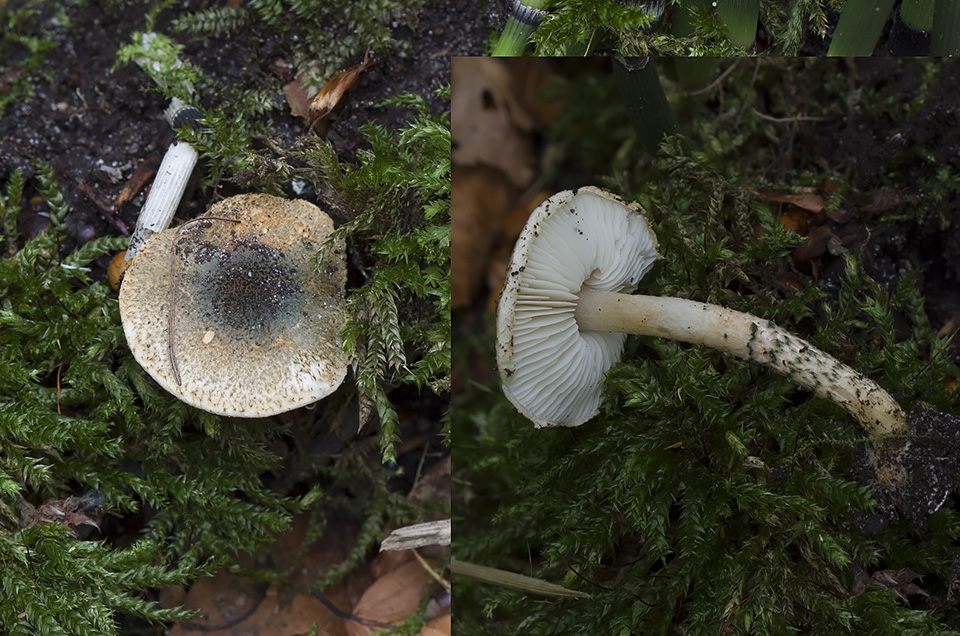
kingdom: Fungi
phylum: Basidiomycota
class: Agaricomycetes
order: Agaricales
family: Agaricaceae
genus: Lepiota
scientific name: Lepiota grangei
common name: grønskællet parasolhat
